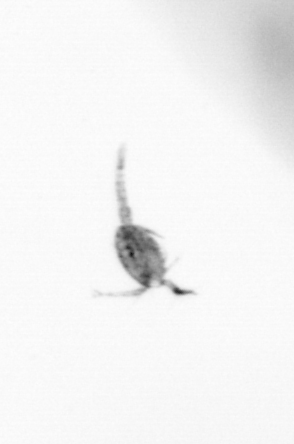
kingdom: Animalia
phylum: Arthropoda
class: Copepoda
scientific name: Copepoda
